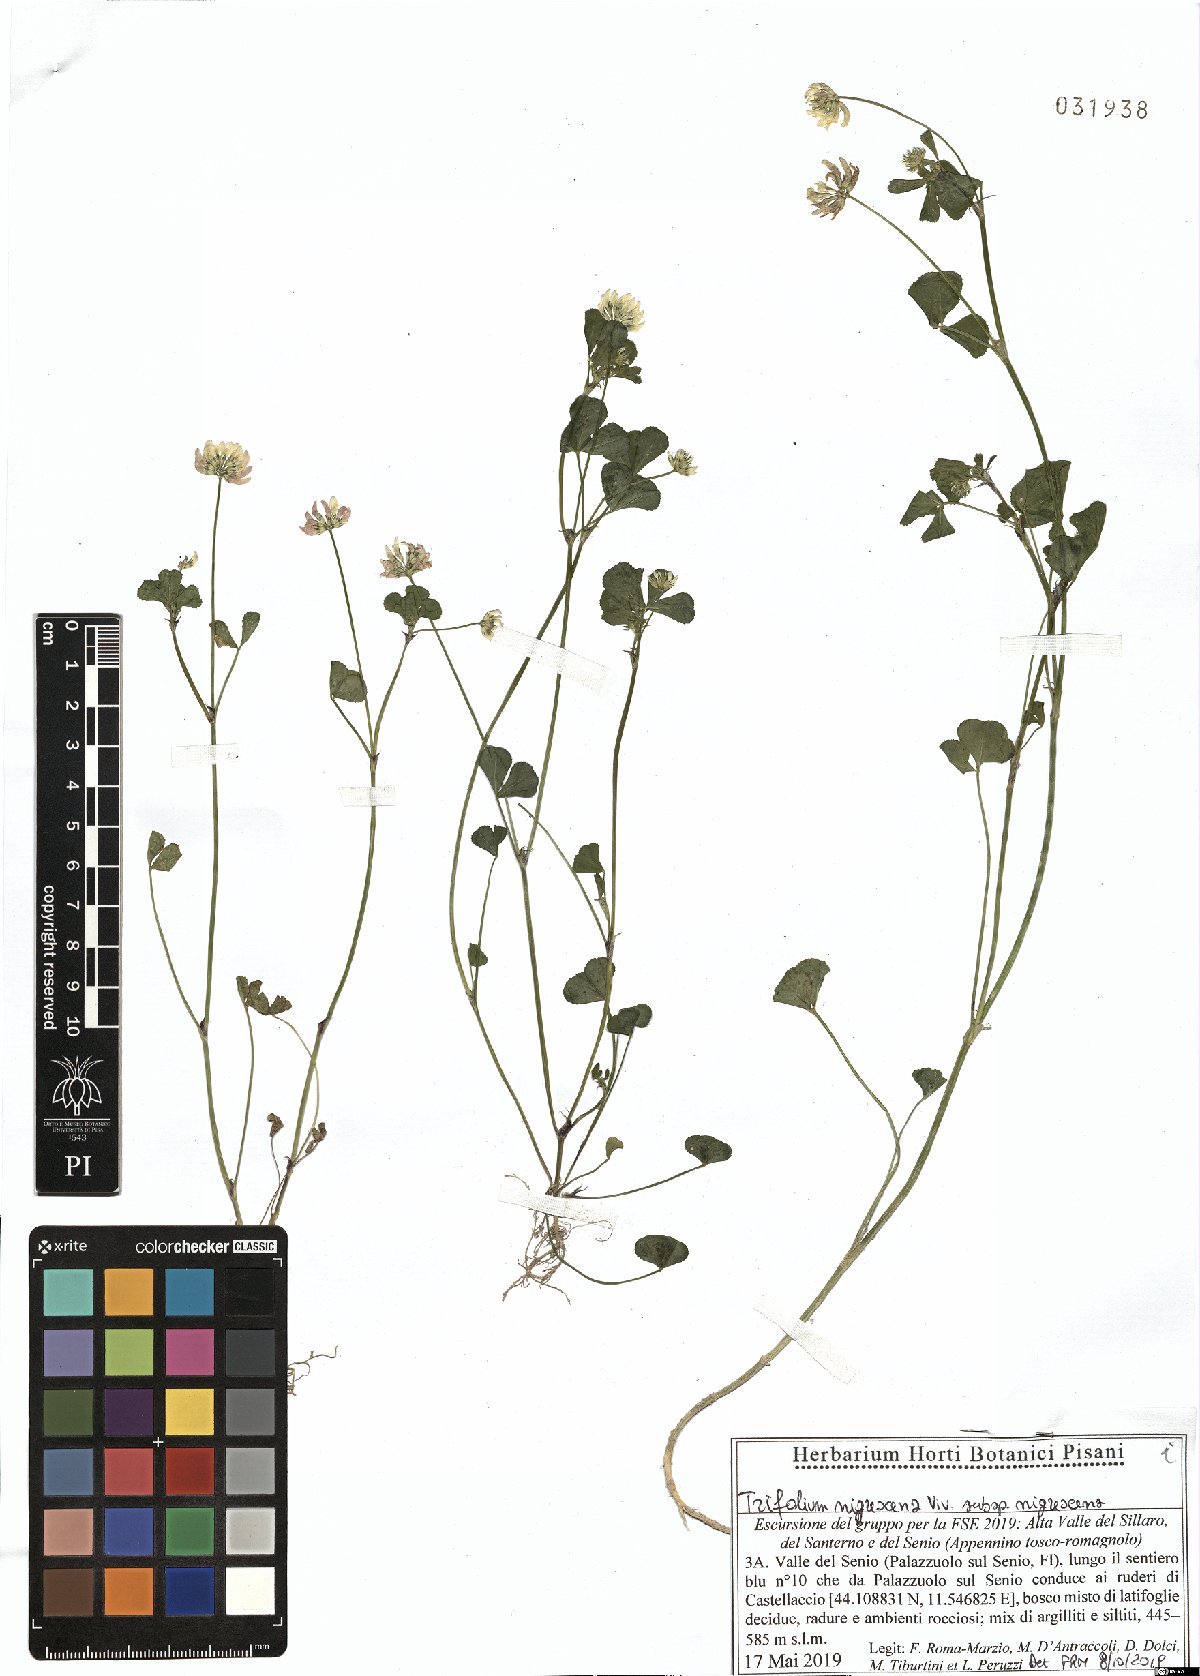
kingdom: Plantae
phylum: Tracheophyta
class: Magnoliopsida
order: Fabales
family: Fabaceae
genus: Trifolium
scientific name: Trifolium nigrescens
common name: Small white clover
